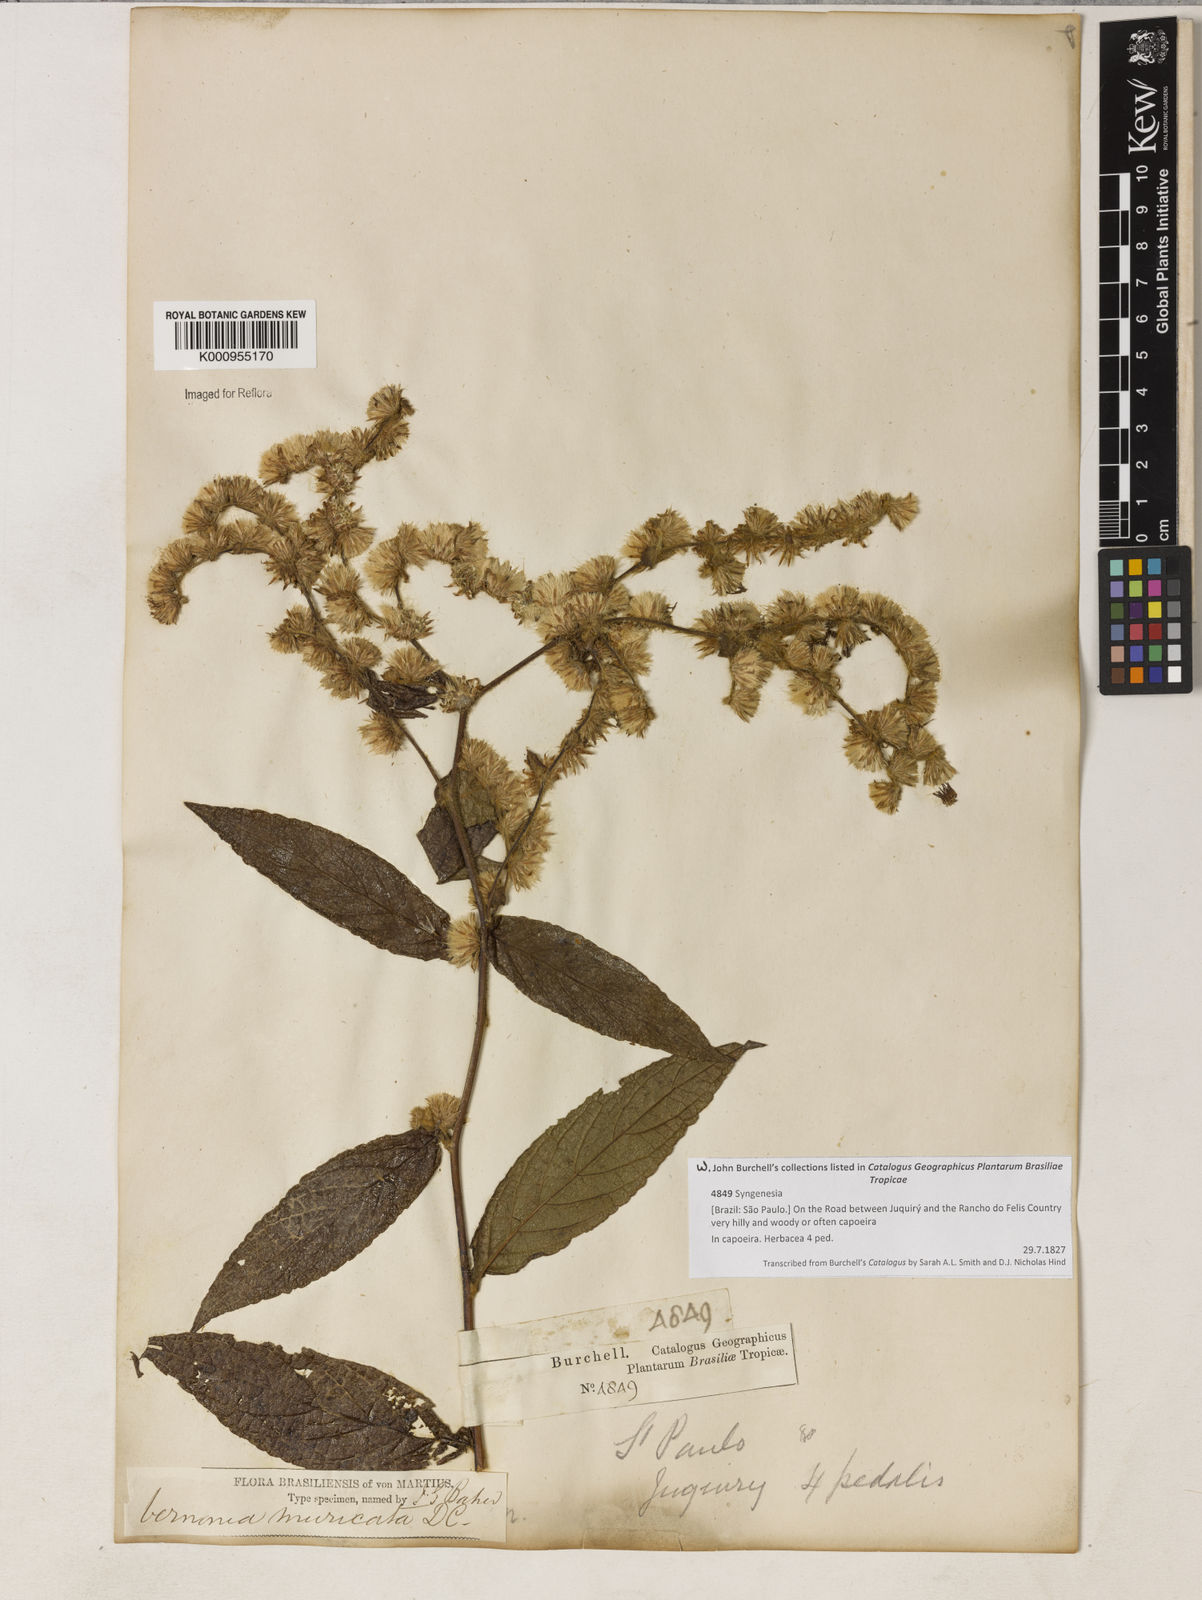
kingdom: Plantae
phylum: Tracheophyta
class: Magnoliopsida
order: Asterales
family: Asteraceae
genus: Lepidaploa
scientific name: Lepidaploa muricata
